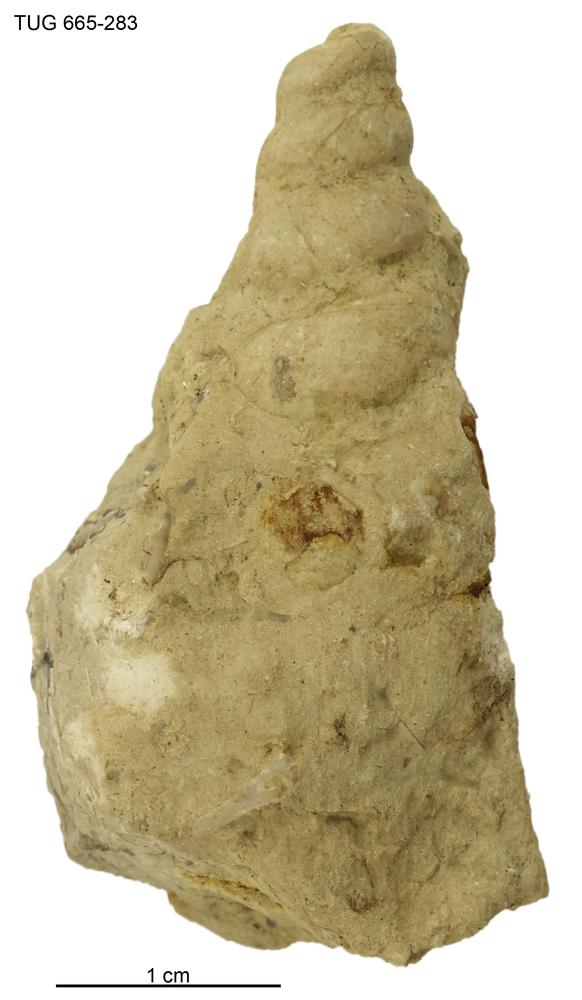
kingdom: Animalia
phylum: Mollusca
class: Gastropoda
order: Pleurotomariida
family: Murchisoniidae
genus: Murchisonia
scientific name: Murchisonia scrobiculata
